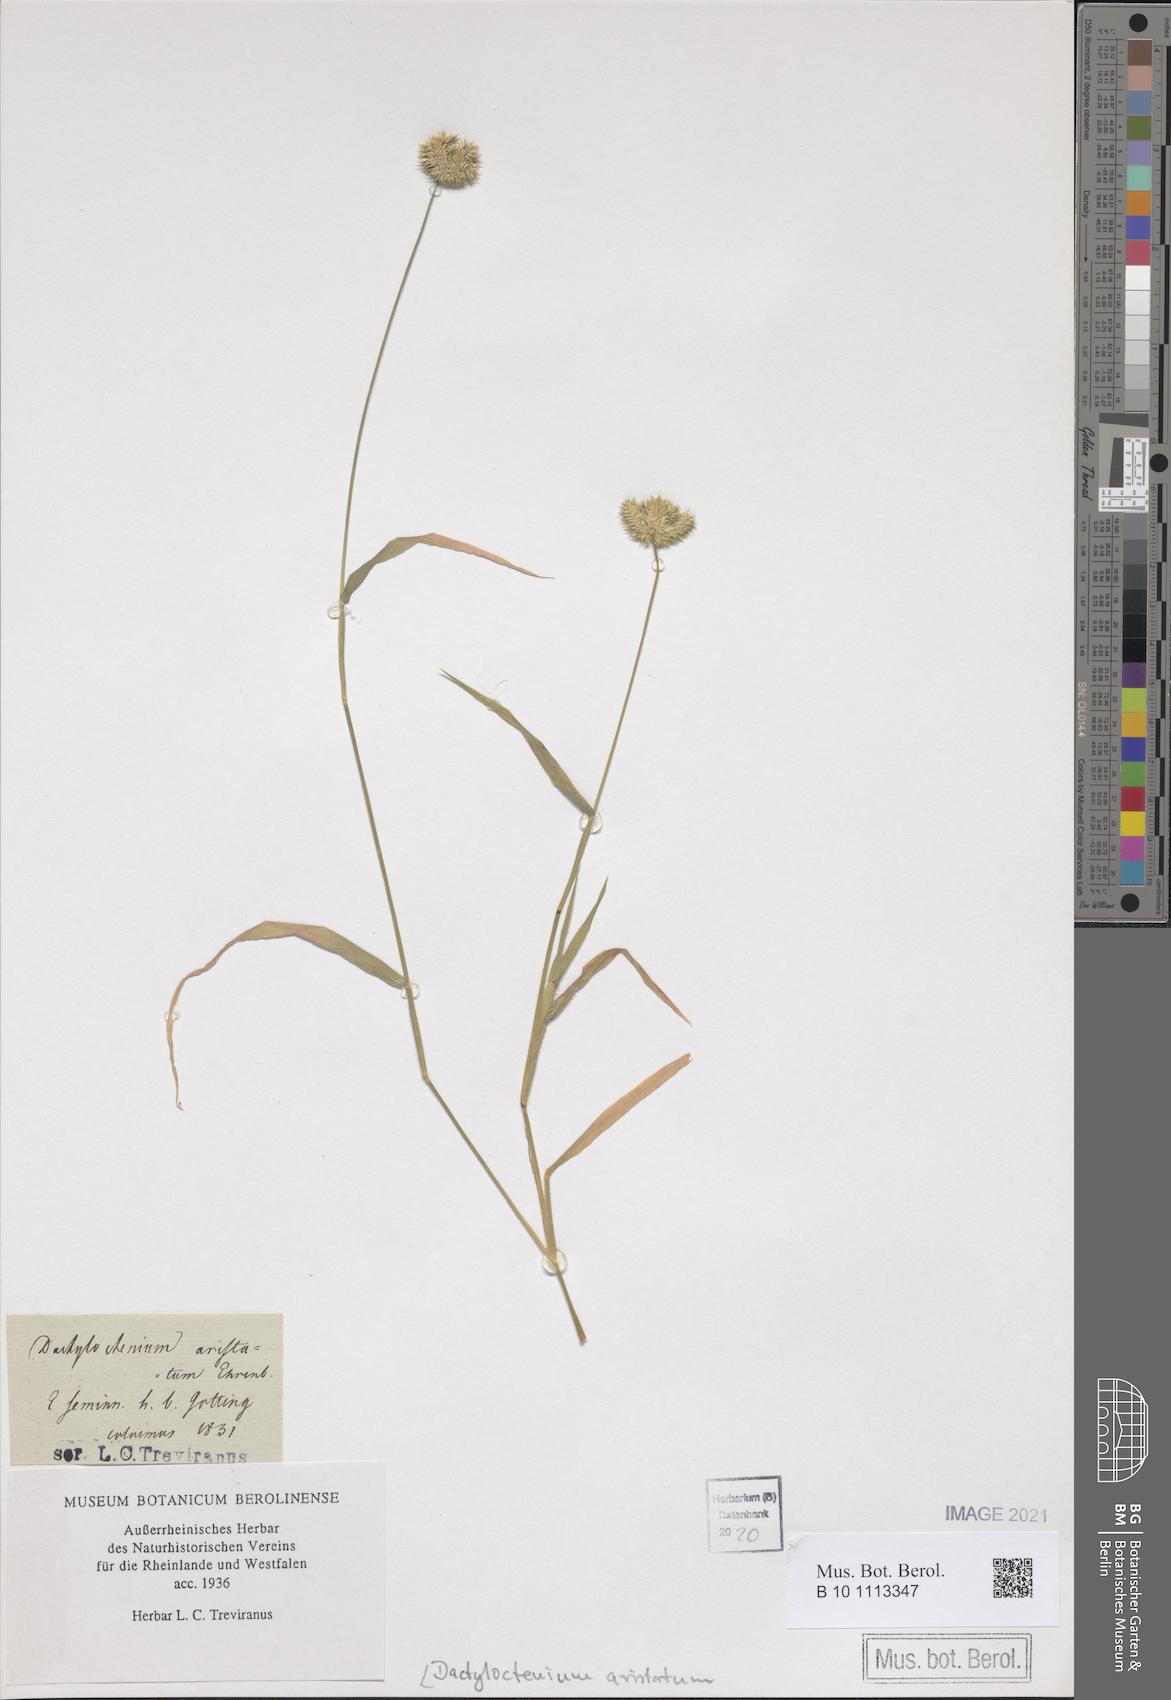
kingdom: Plantae
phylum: Tracheophyta
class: Liliopsida
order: Poales
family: Poaceae
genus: Dactyloctenium
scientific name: Dactyloctenium aristatum
